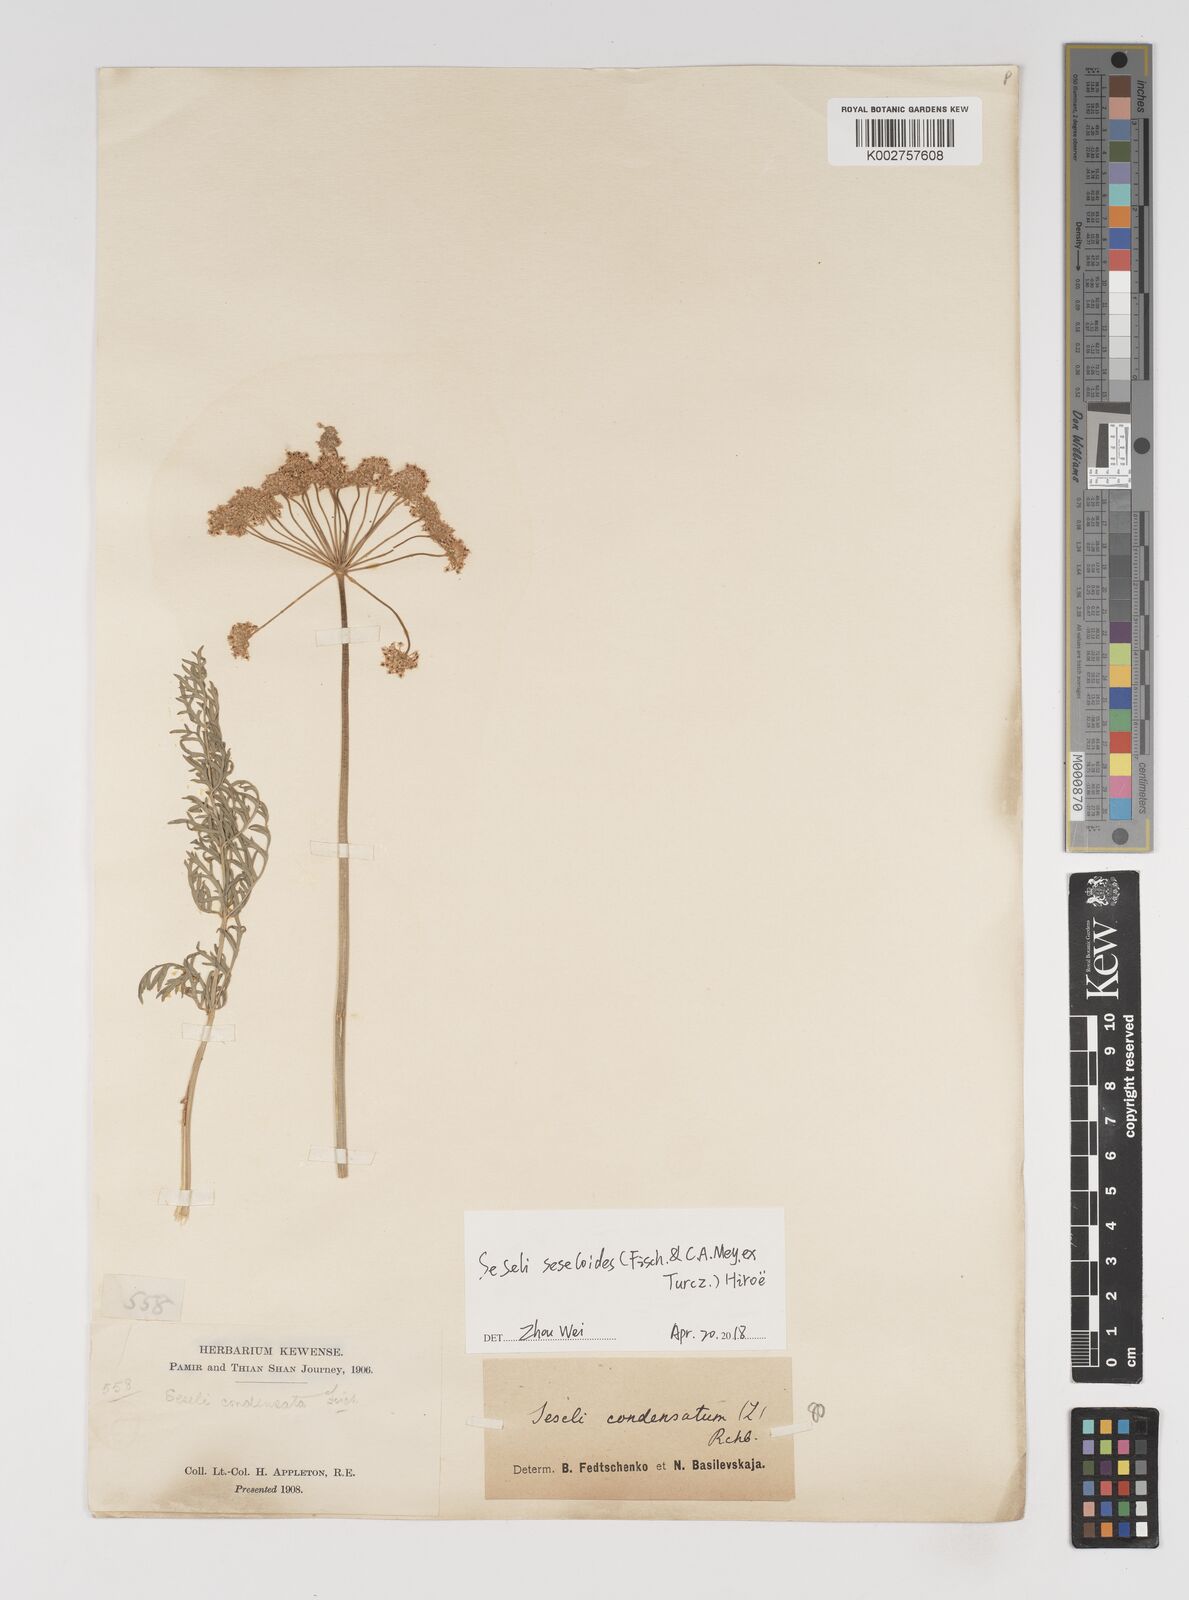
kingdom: Plantae
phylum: Tracheophyta
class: Magnoliopsida
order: Apiales
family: Apiaceae
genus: Seseli
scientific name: Seseli seseloides
